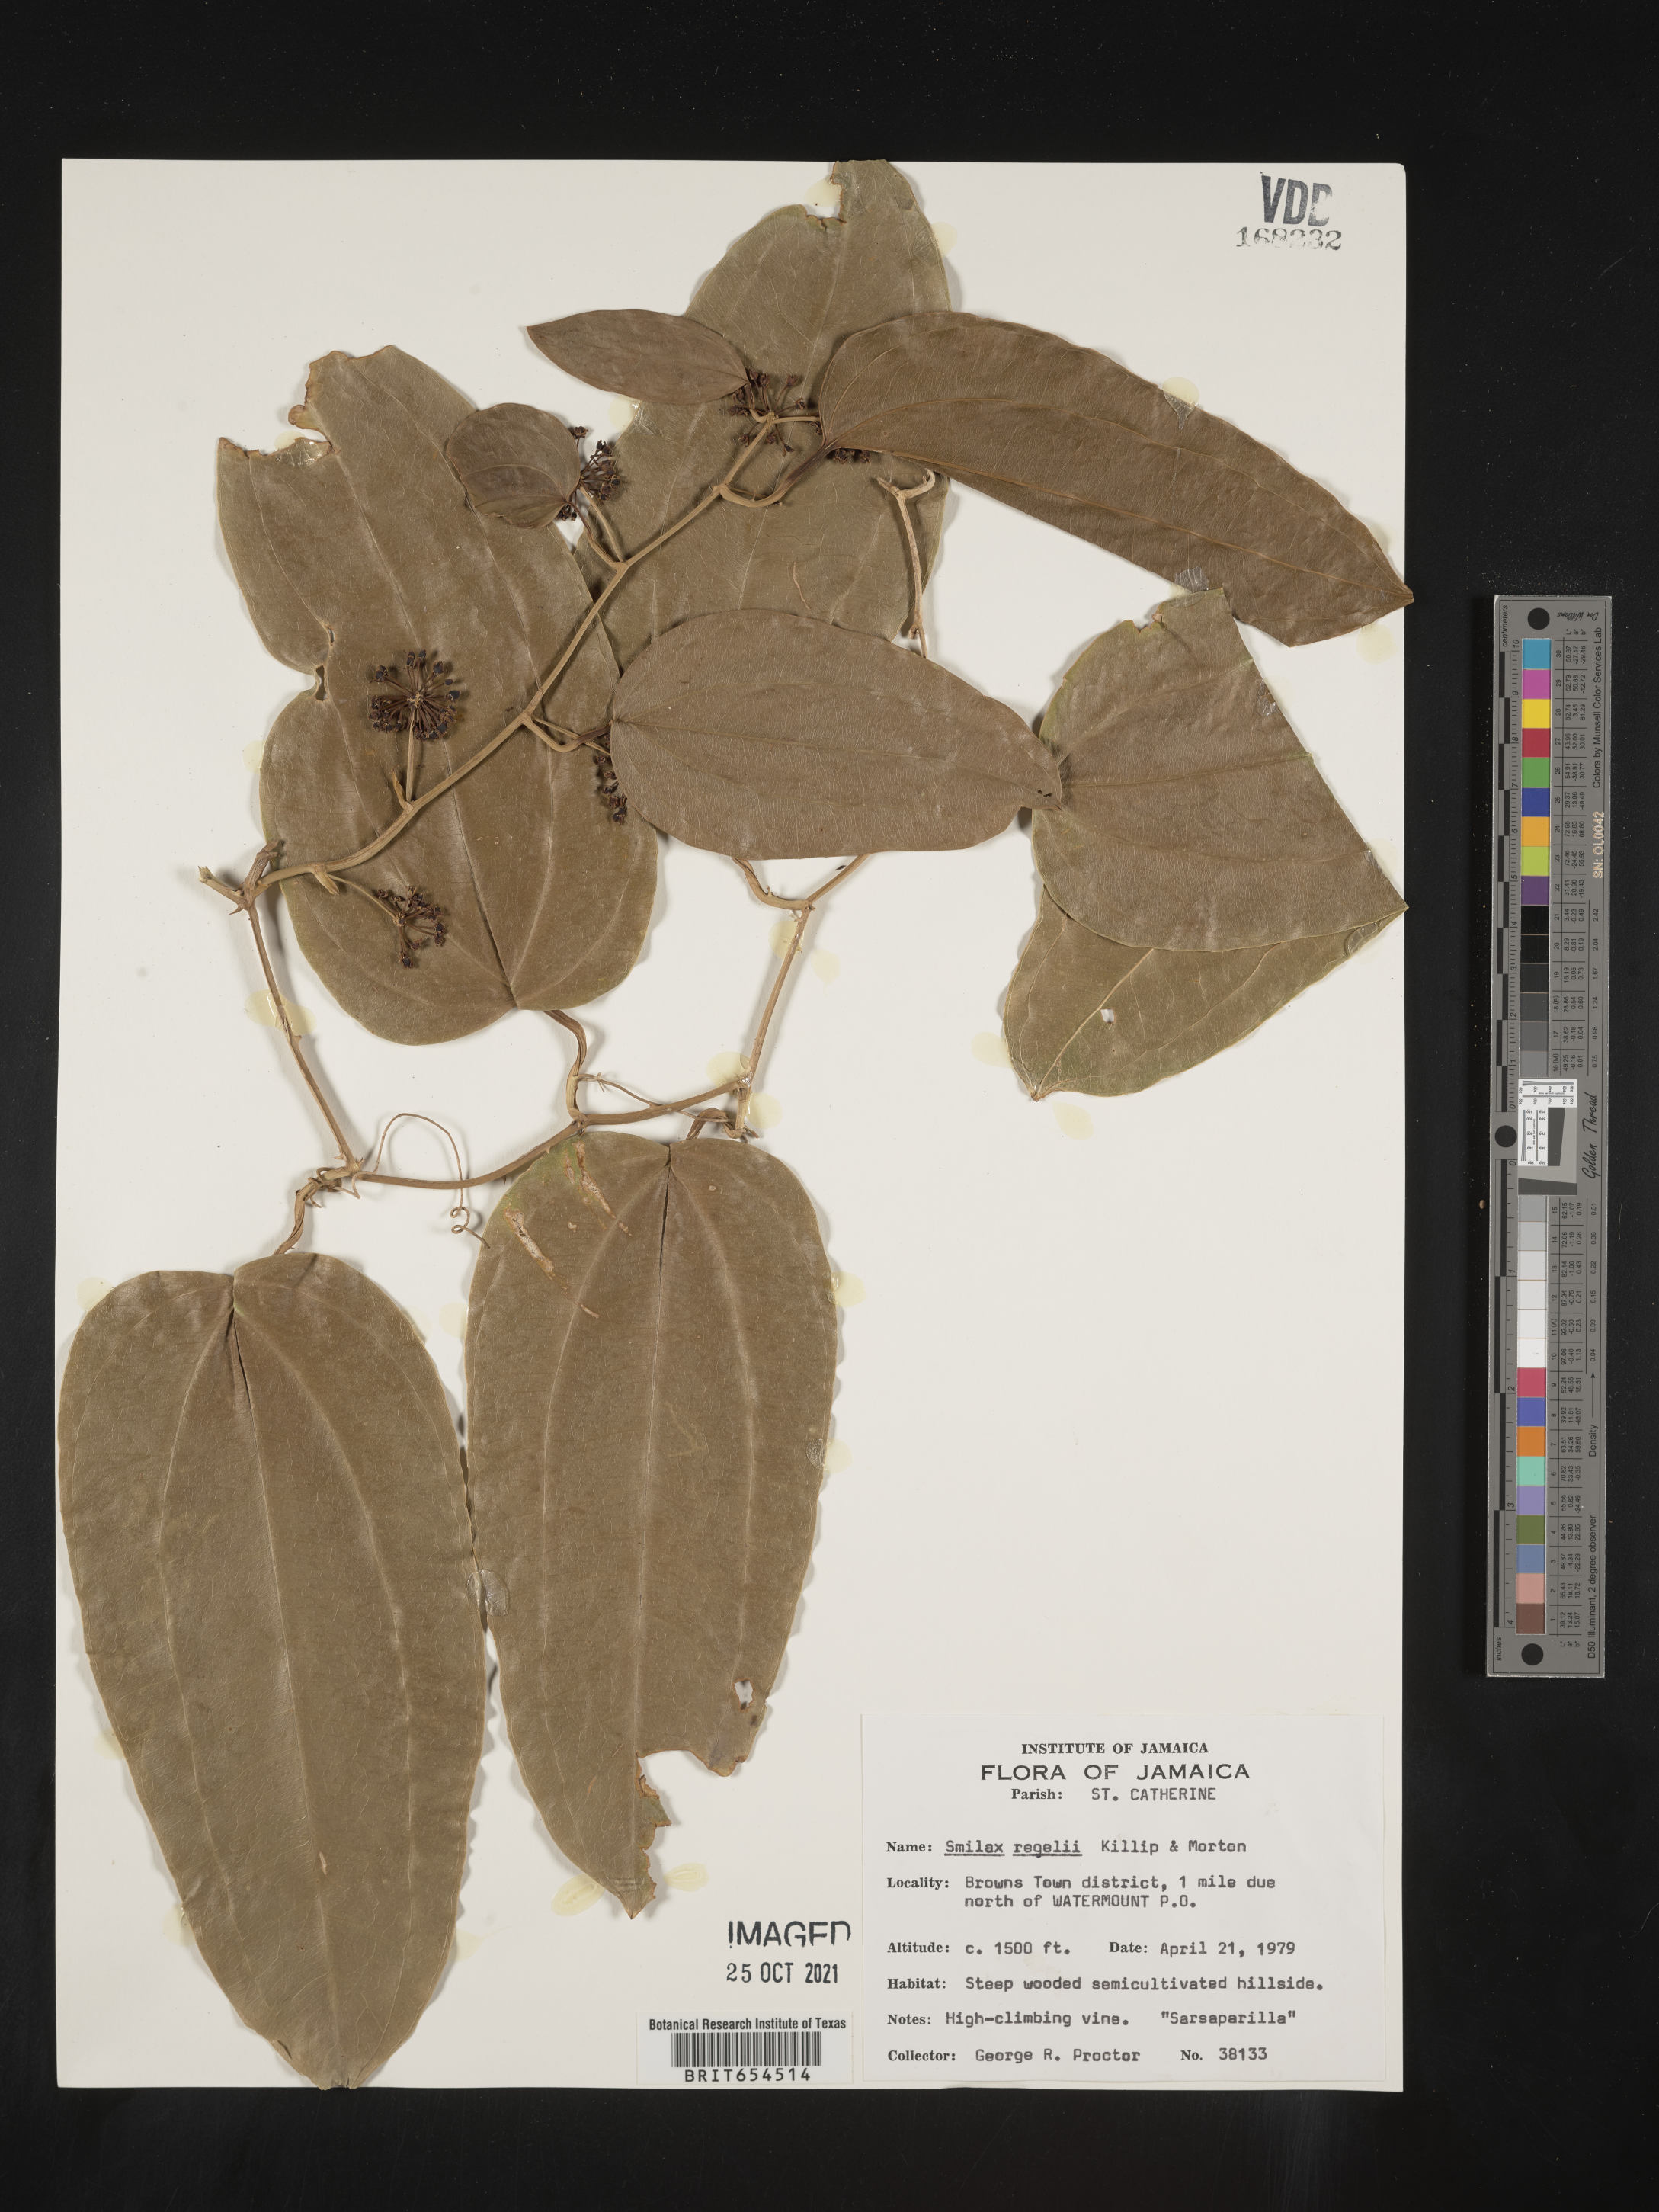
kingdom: Plantae
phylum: Tracheophyta
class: Liliopsida
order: Liliales
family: Smilacaceae
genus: Smilax
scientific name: Smilax
